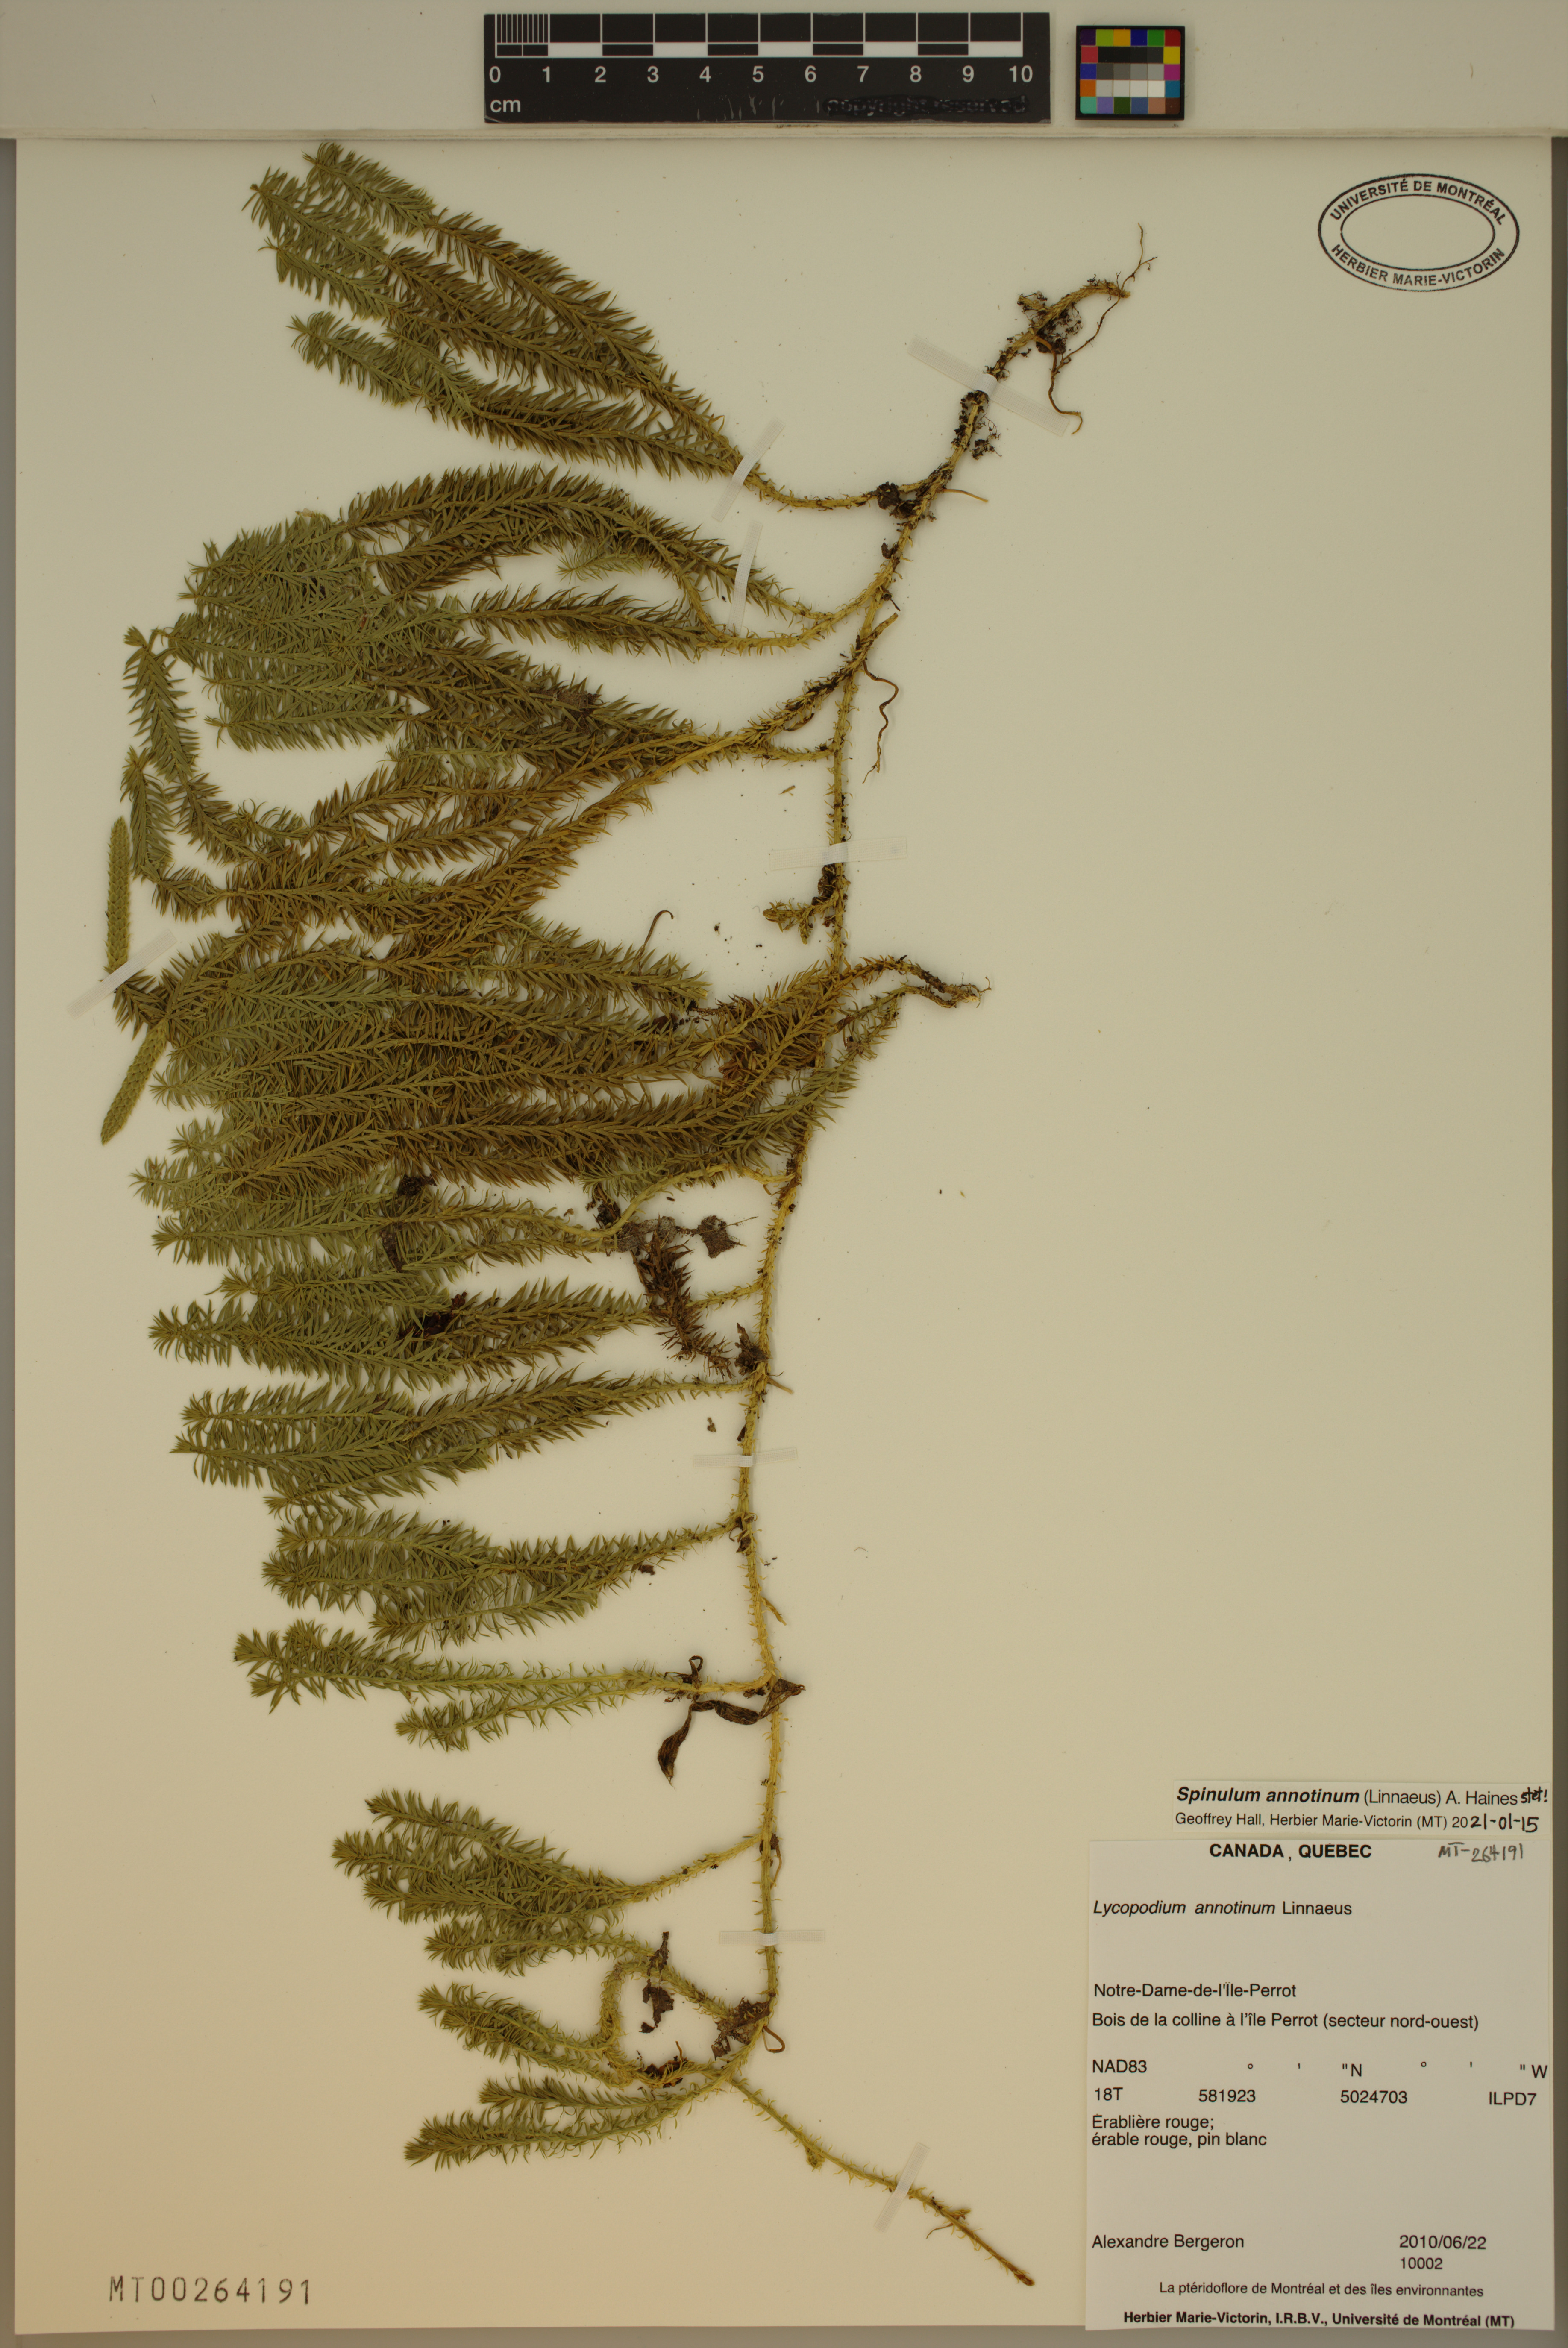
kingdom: Plantae
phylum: Tracheophyta
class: Lycopodiopsida
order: Lycopodiales
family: Lycopodiaceae
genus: Spinulum
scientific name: Spinulum annotinum
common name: Interrupted club-moss
